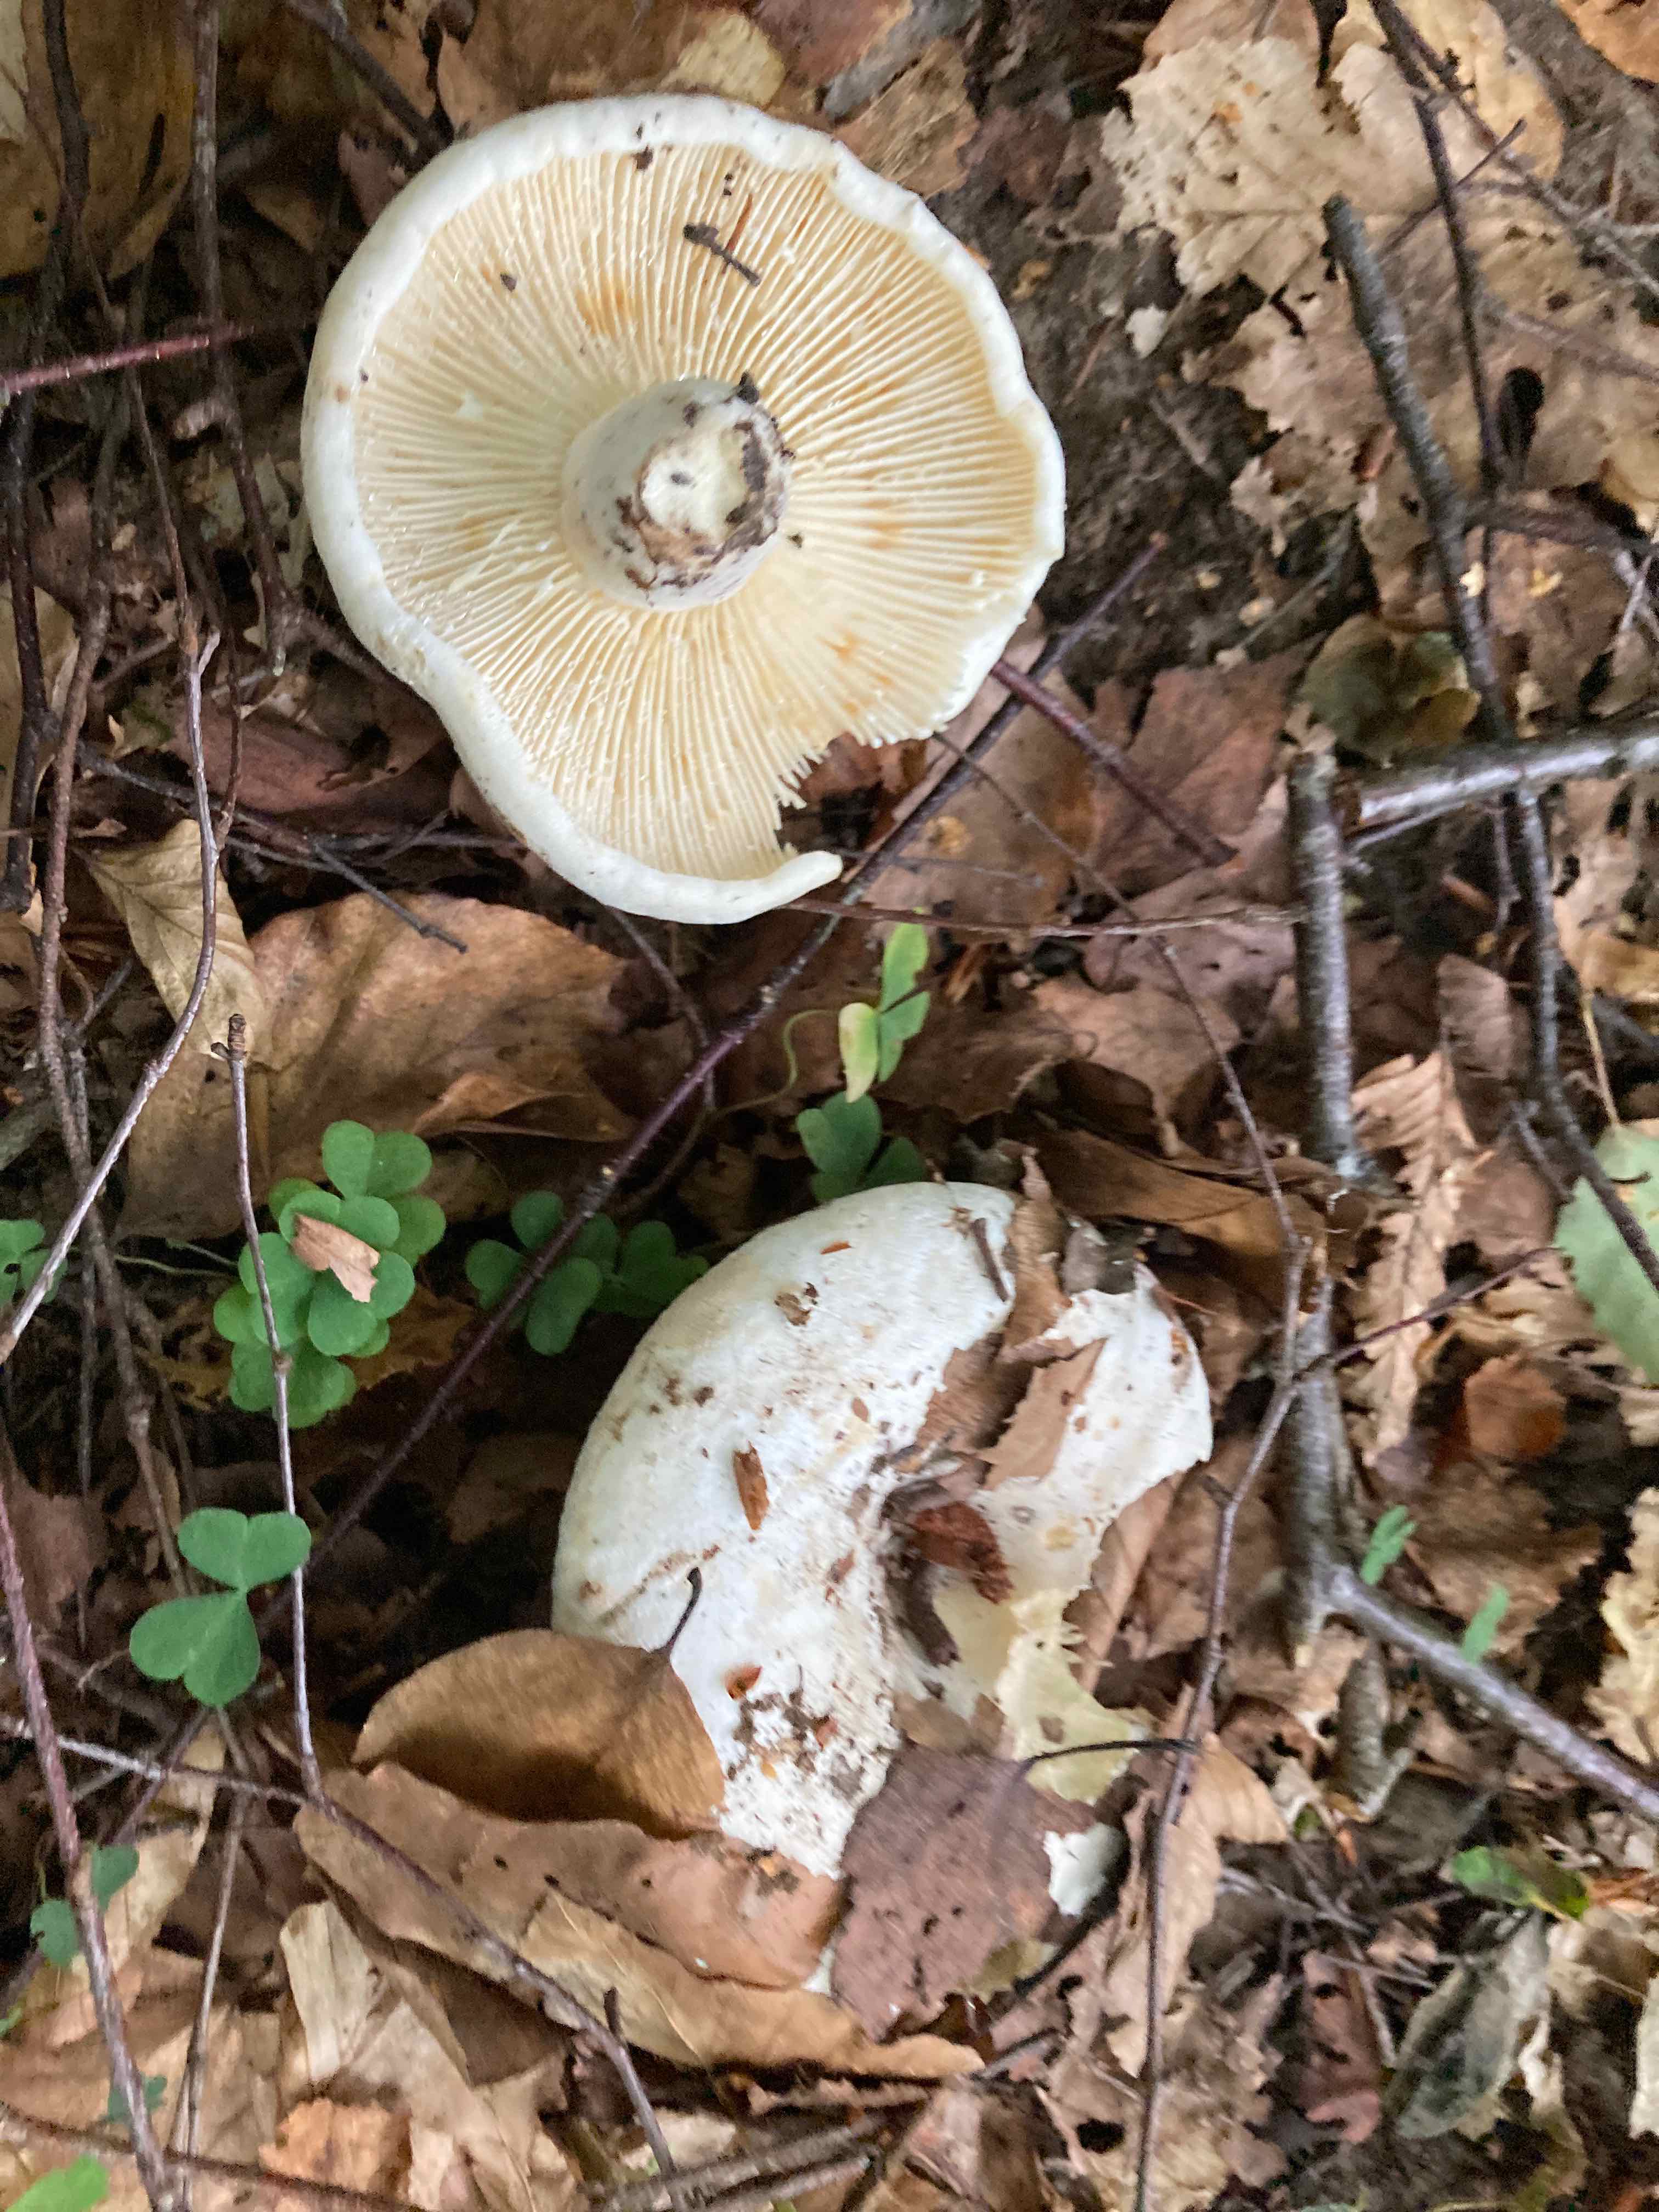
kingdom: Fungi
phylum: Basidiomycota
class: Agaricomycetes
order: Russulales
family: Russulaceae
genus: Lactifluus
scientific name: Lactifluus bertillonii
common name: blødfiltet mælkehat
